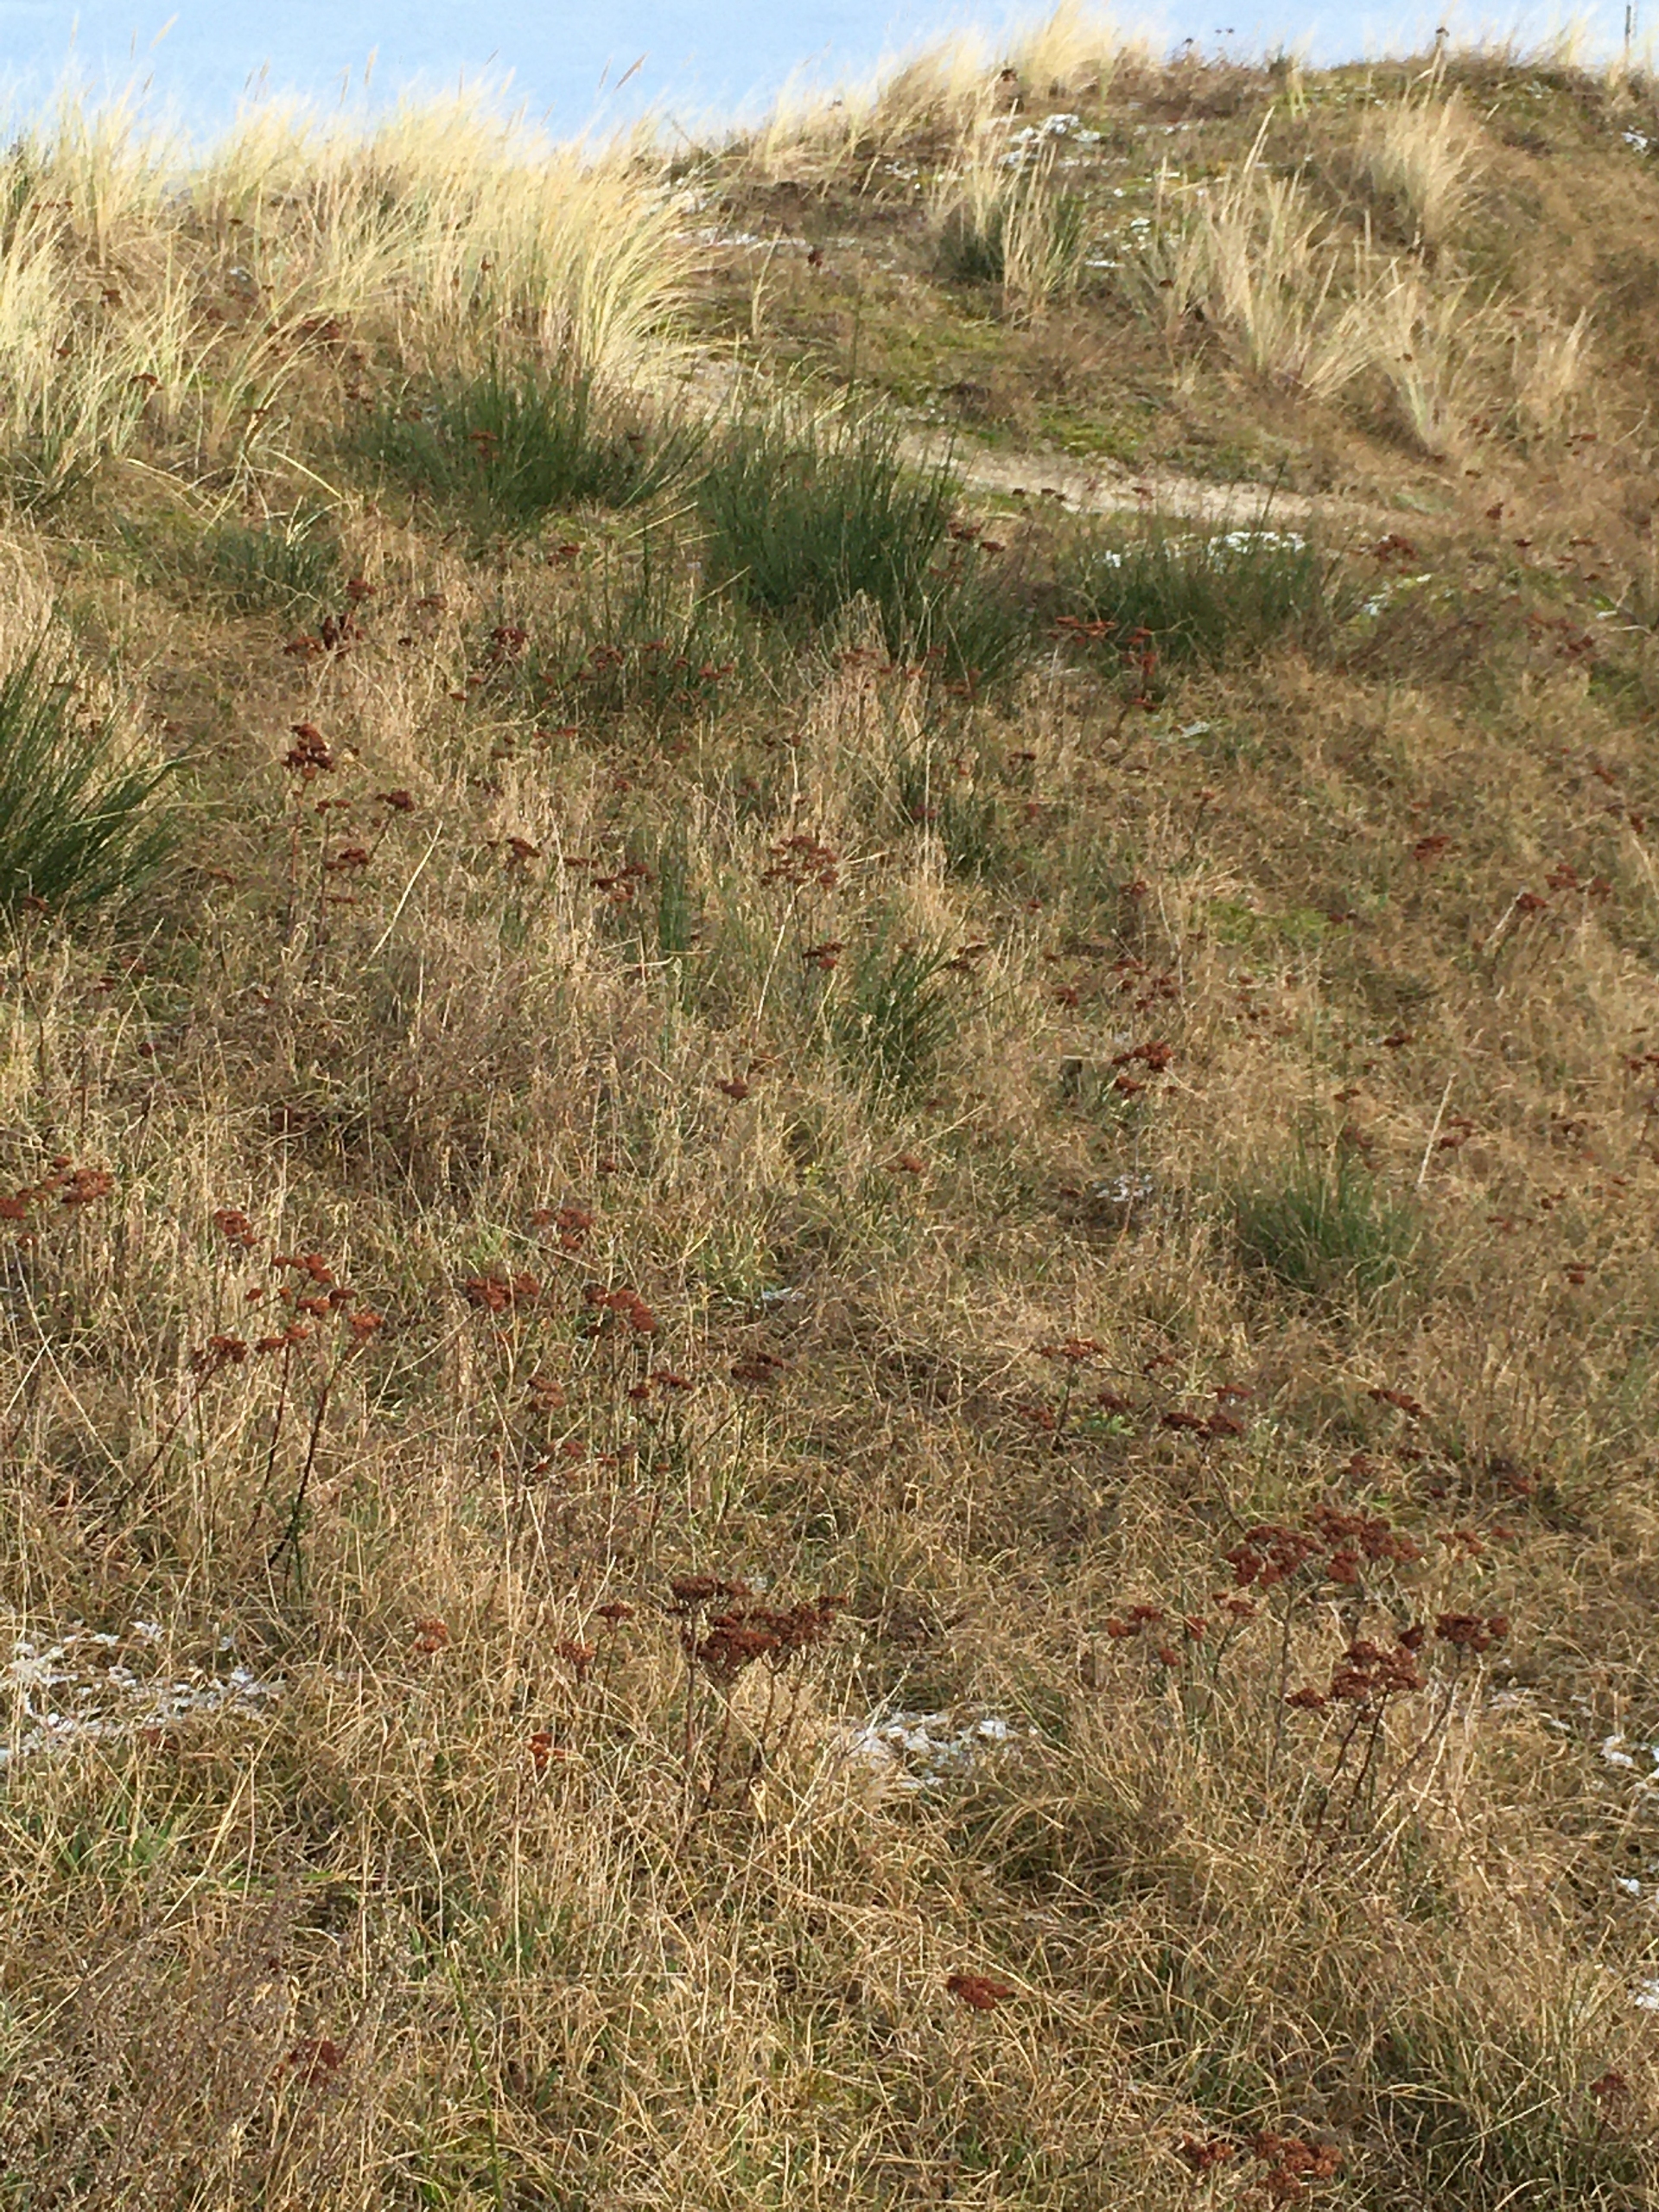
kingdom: Plantae
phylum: Tracheophyta
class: Magnoliopsida
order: Saxifragales
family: Crassulaceae
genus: Hylotelephium
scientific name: Hylotelephium telephium
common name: Sankthansurt
